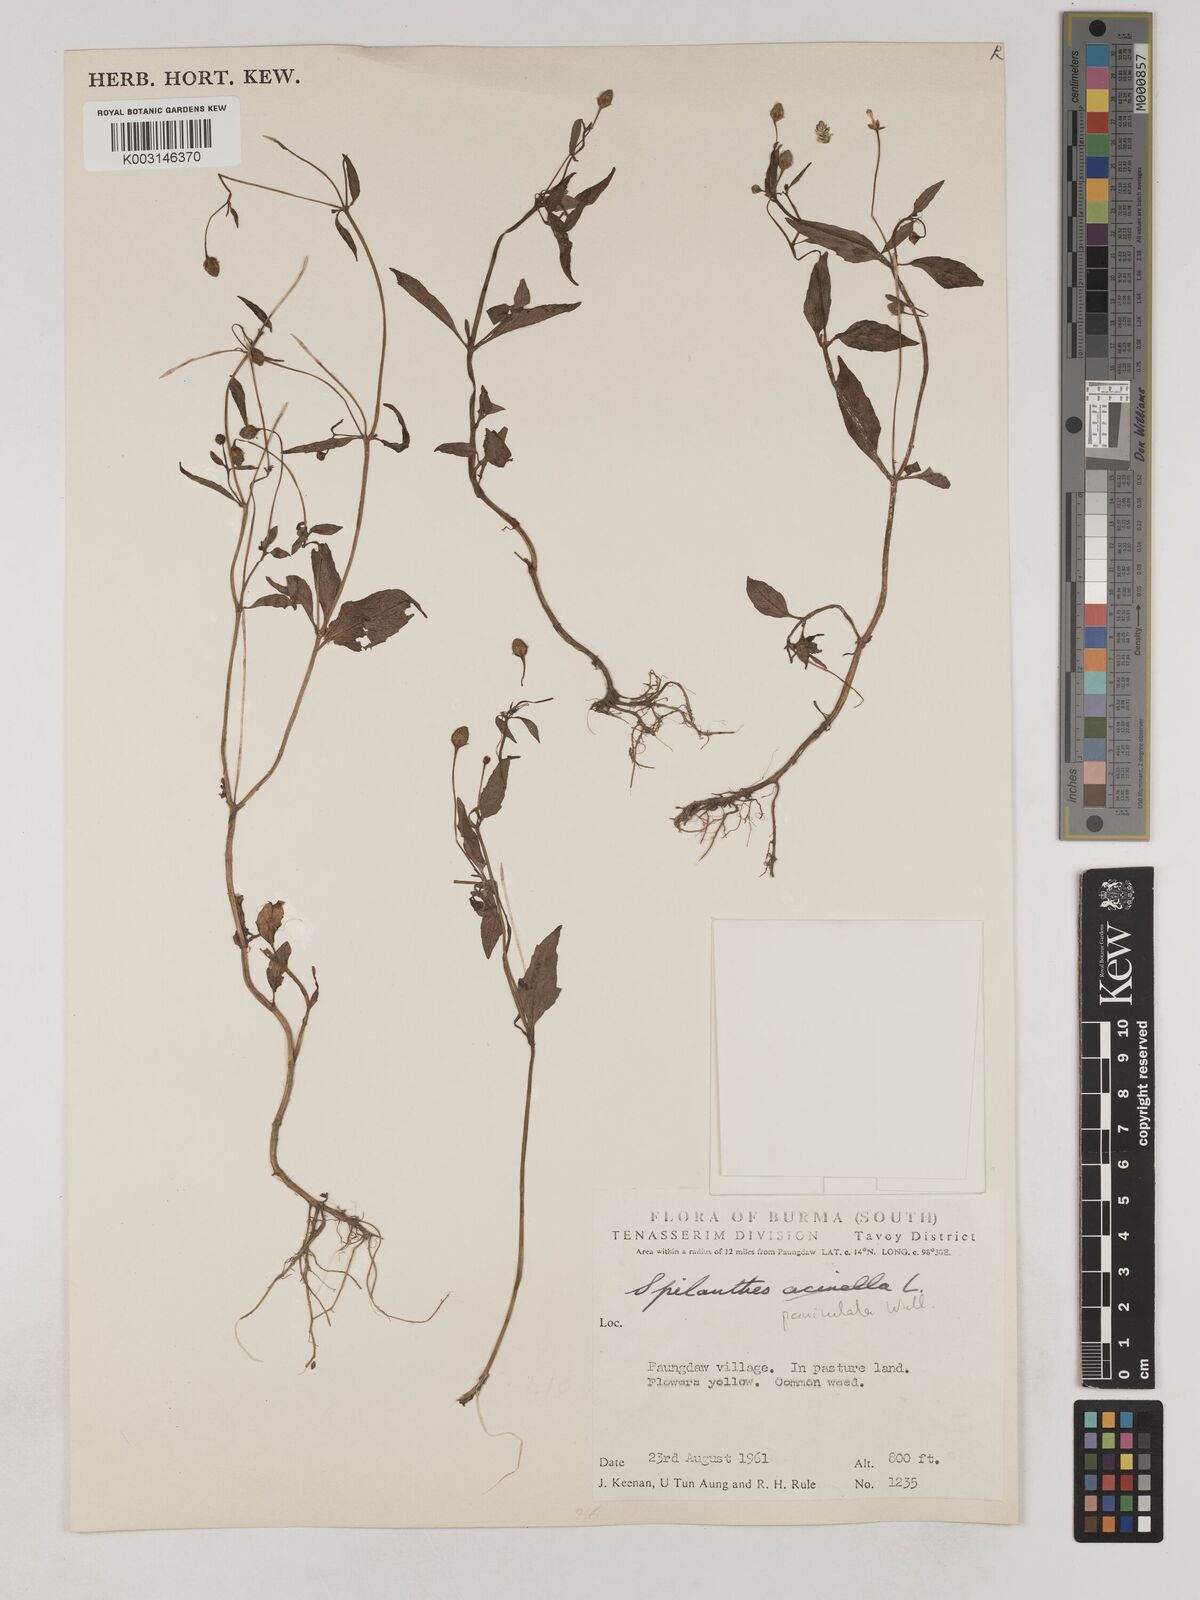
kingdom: Plantae
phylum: Tracheophyta
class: Magnoliopsida
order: Asterales
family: Asteraceae
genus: Acmella
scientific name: Acmella paniculata
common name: Panicled spot flower
